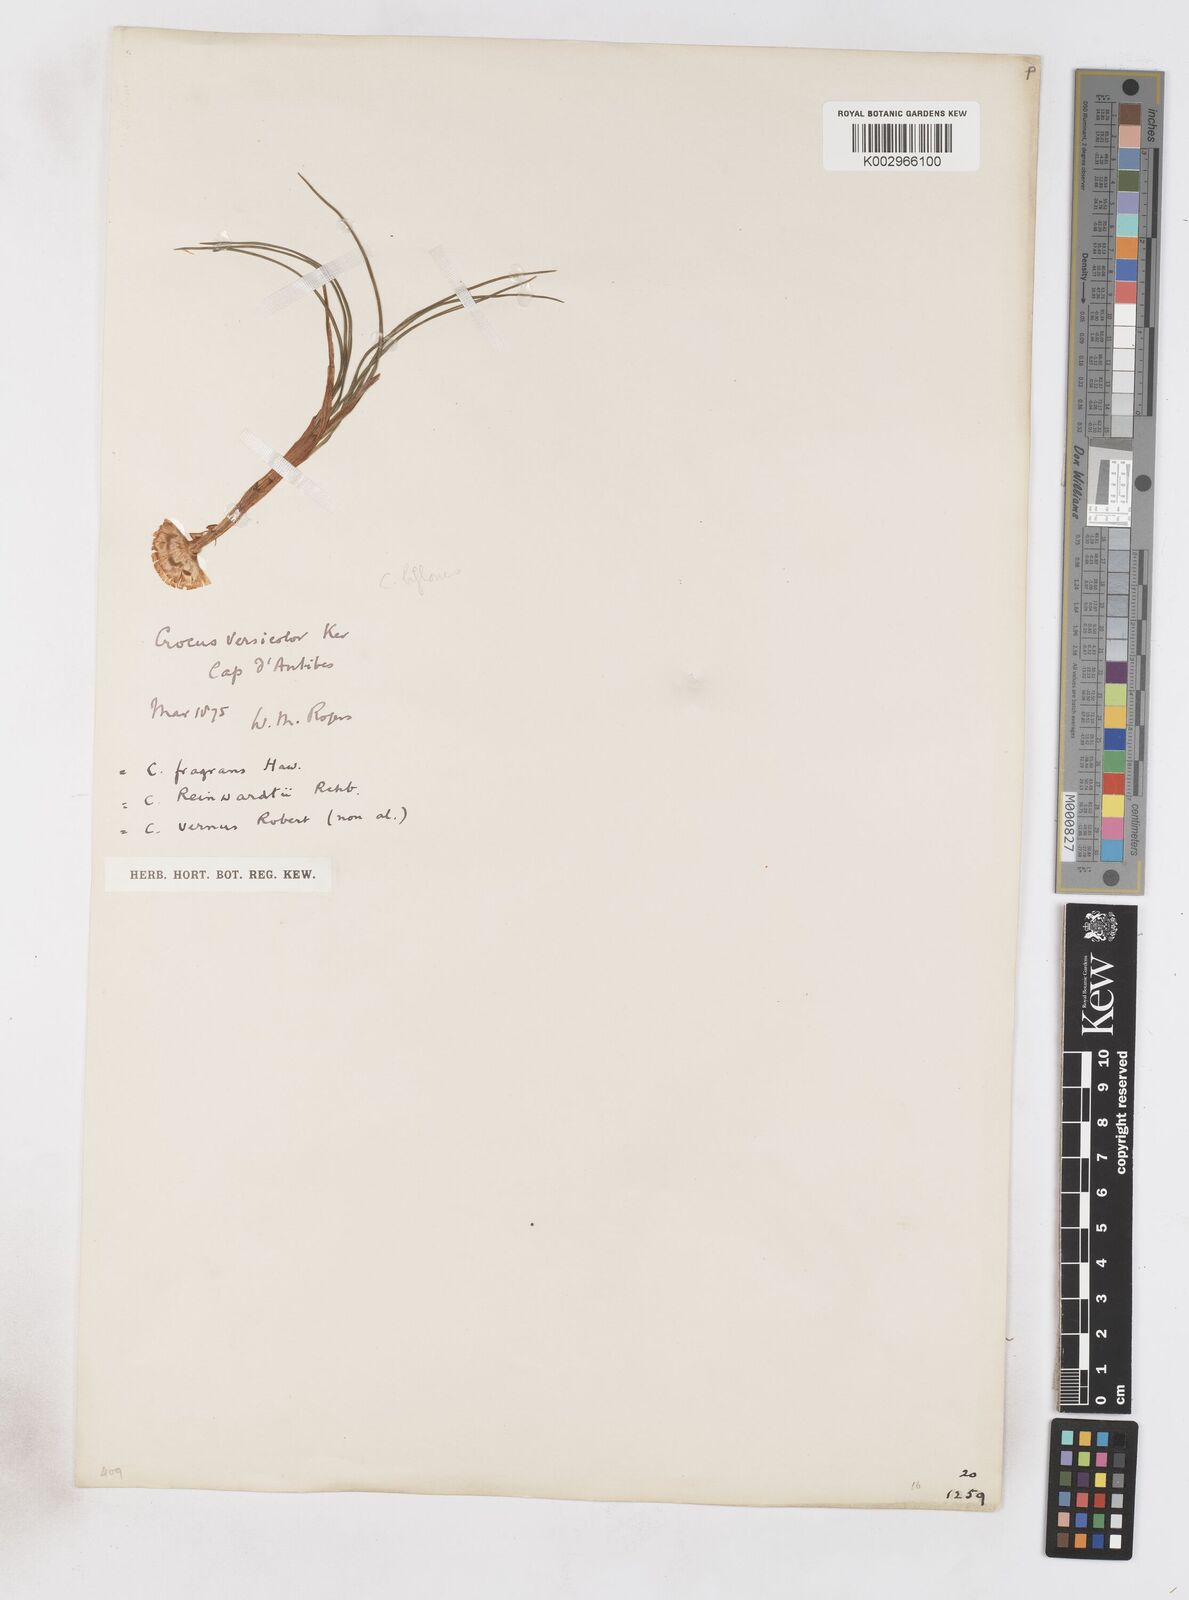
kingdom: Plantae
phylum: Tracheophyta
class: Liliopsida
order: Asparagales
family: Iridaceae
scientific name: Iridaceae
